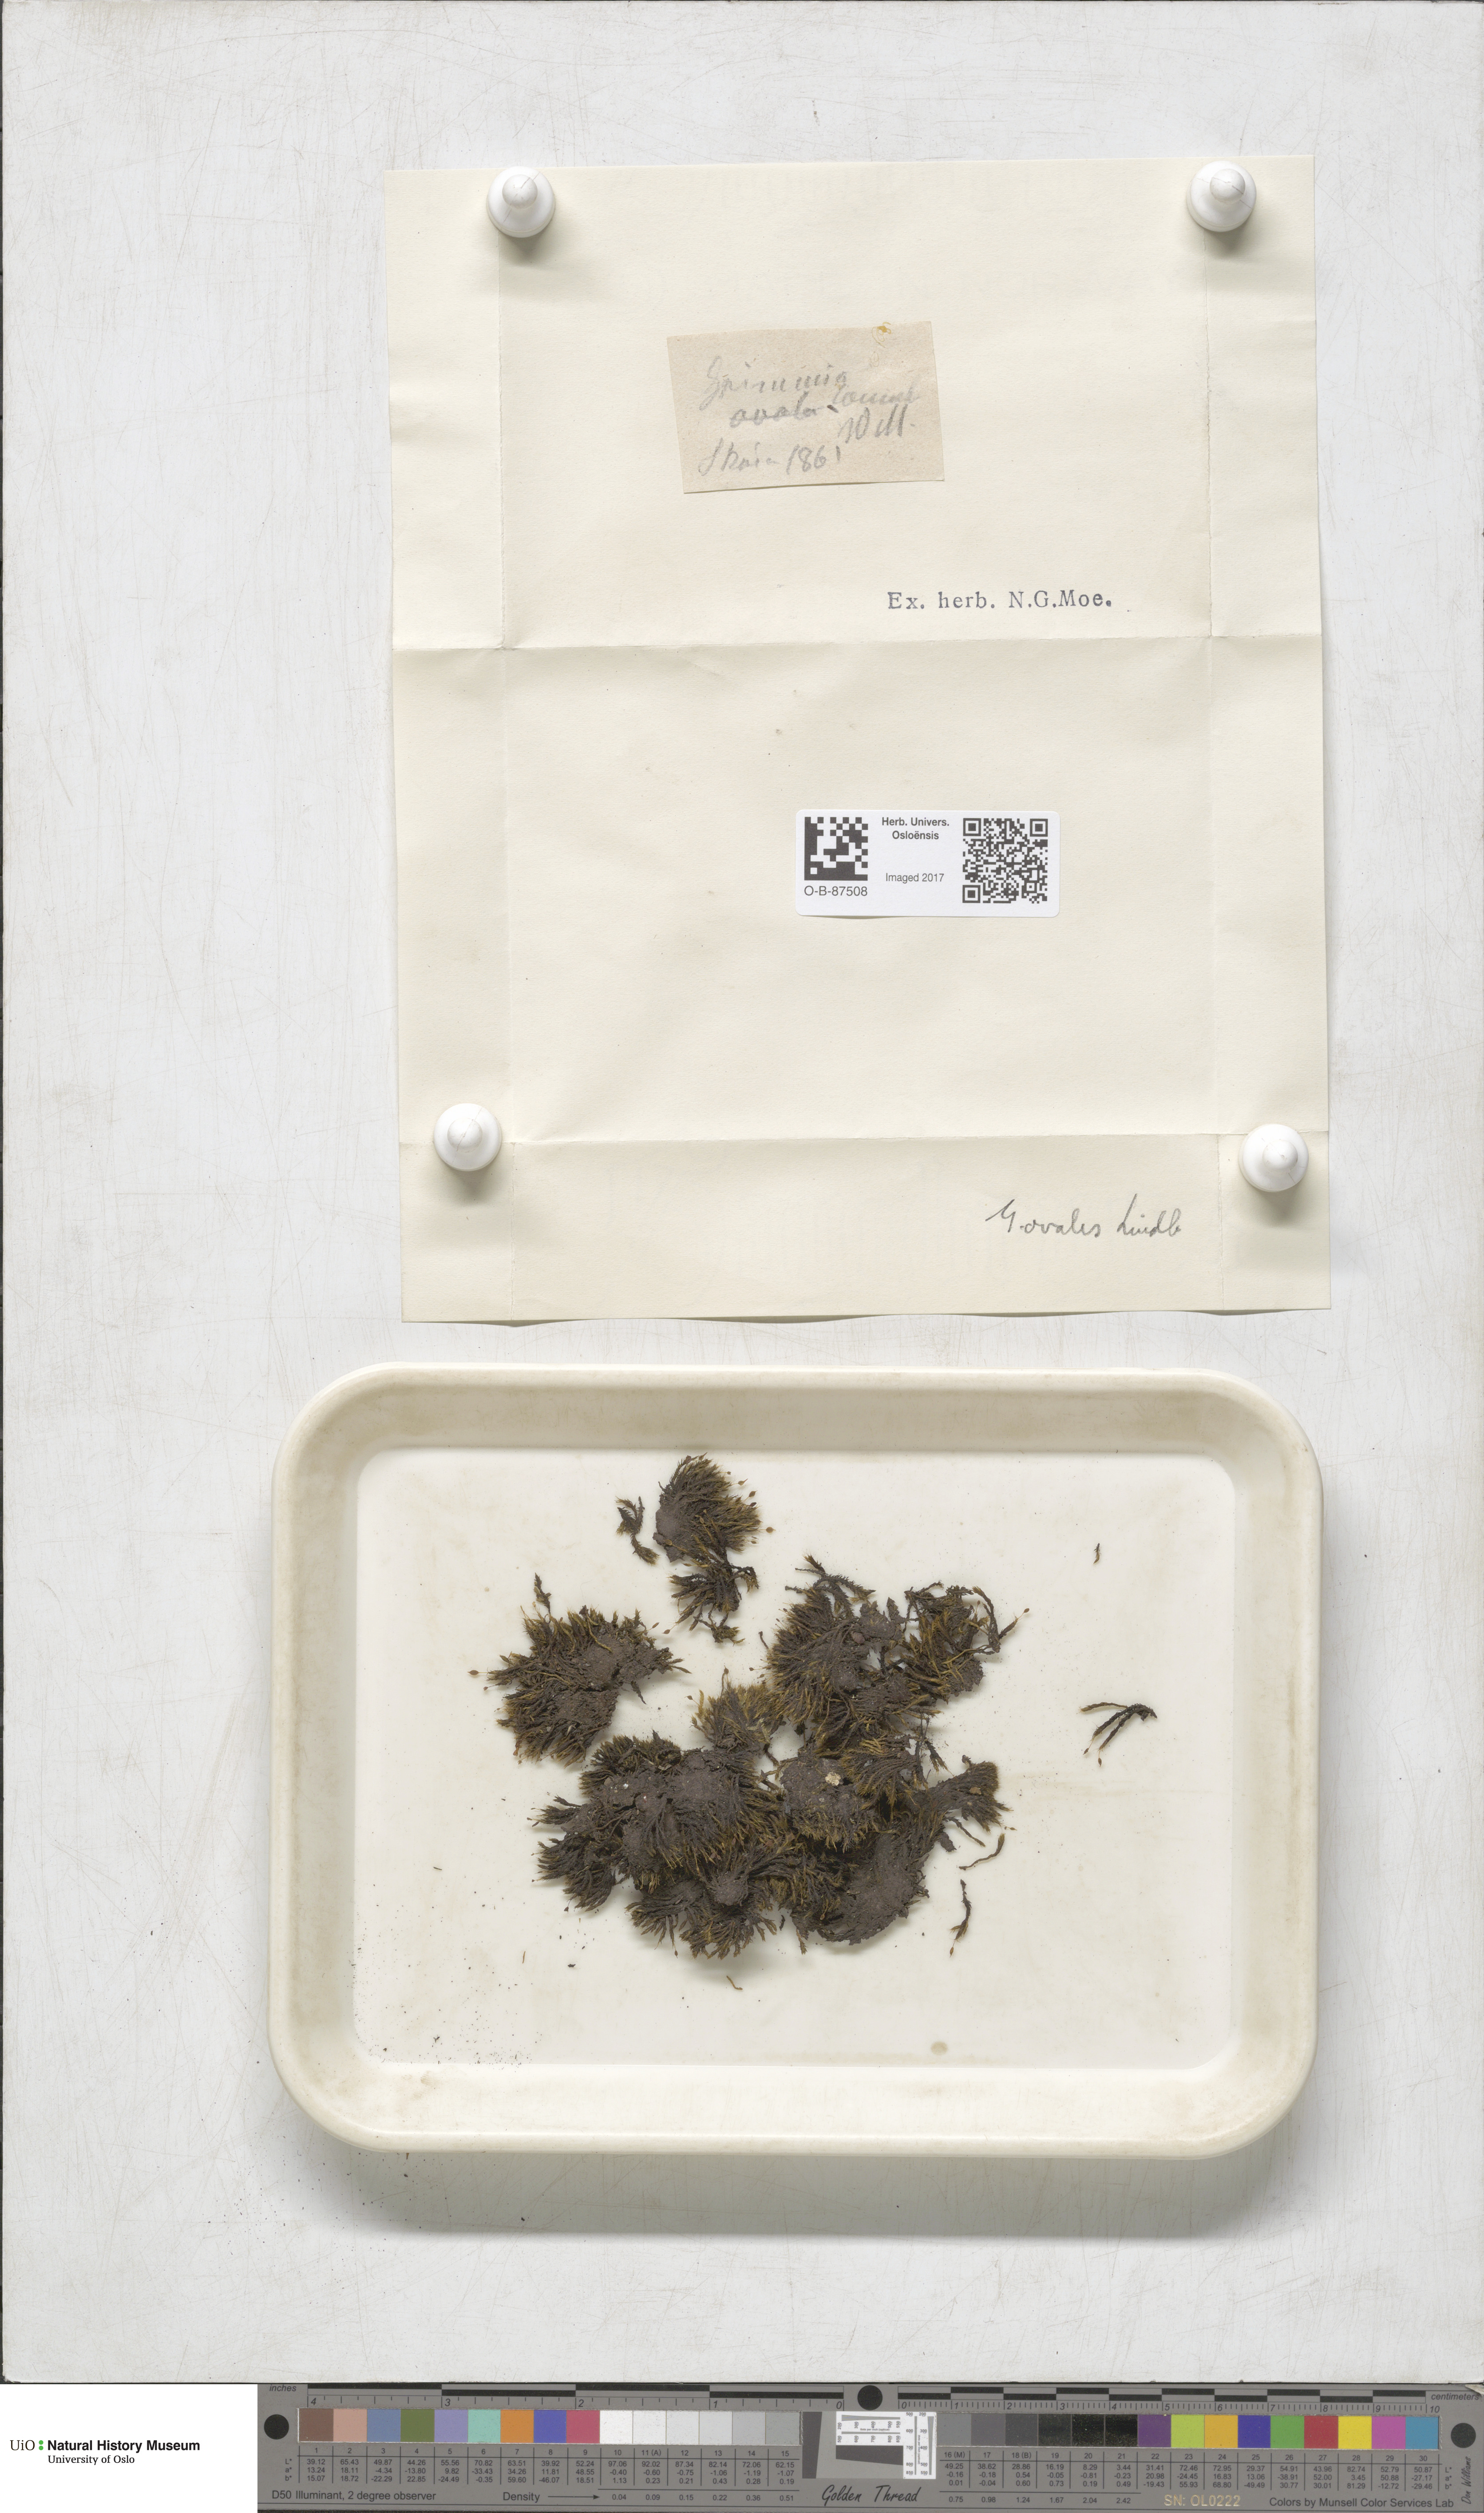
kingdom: Plantae
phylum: Bryophyta
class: Bryopsida
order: Grimmiales
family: Grimmiaceae
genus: Grimmia
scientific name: Grimmia ovalis
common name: Oval grimmia
